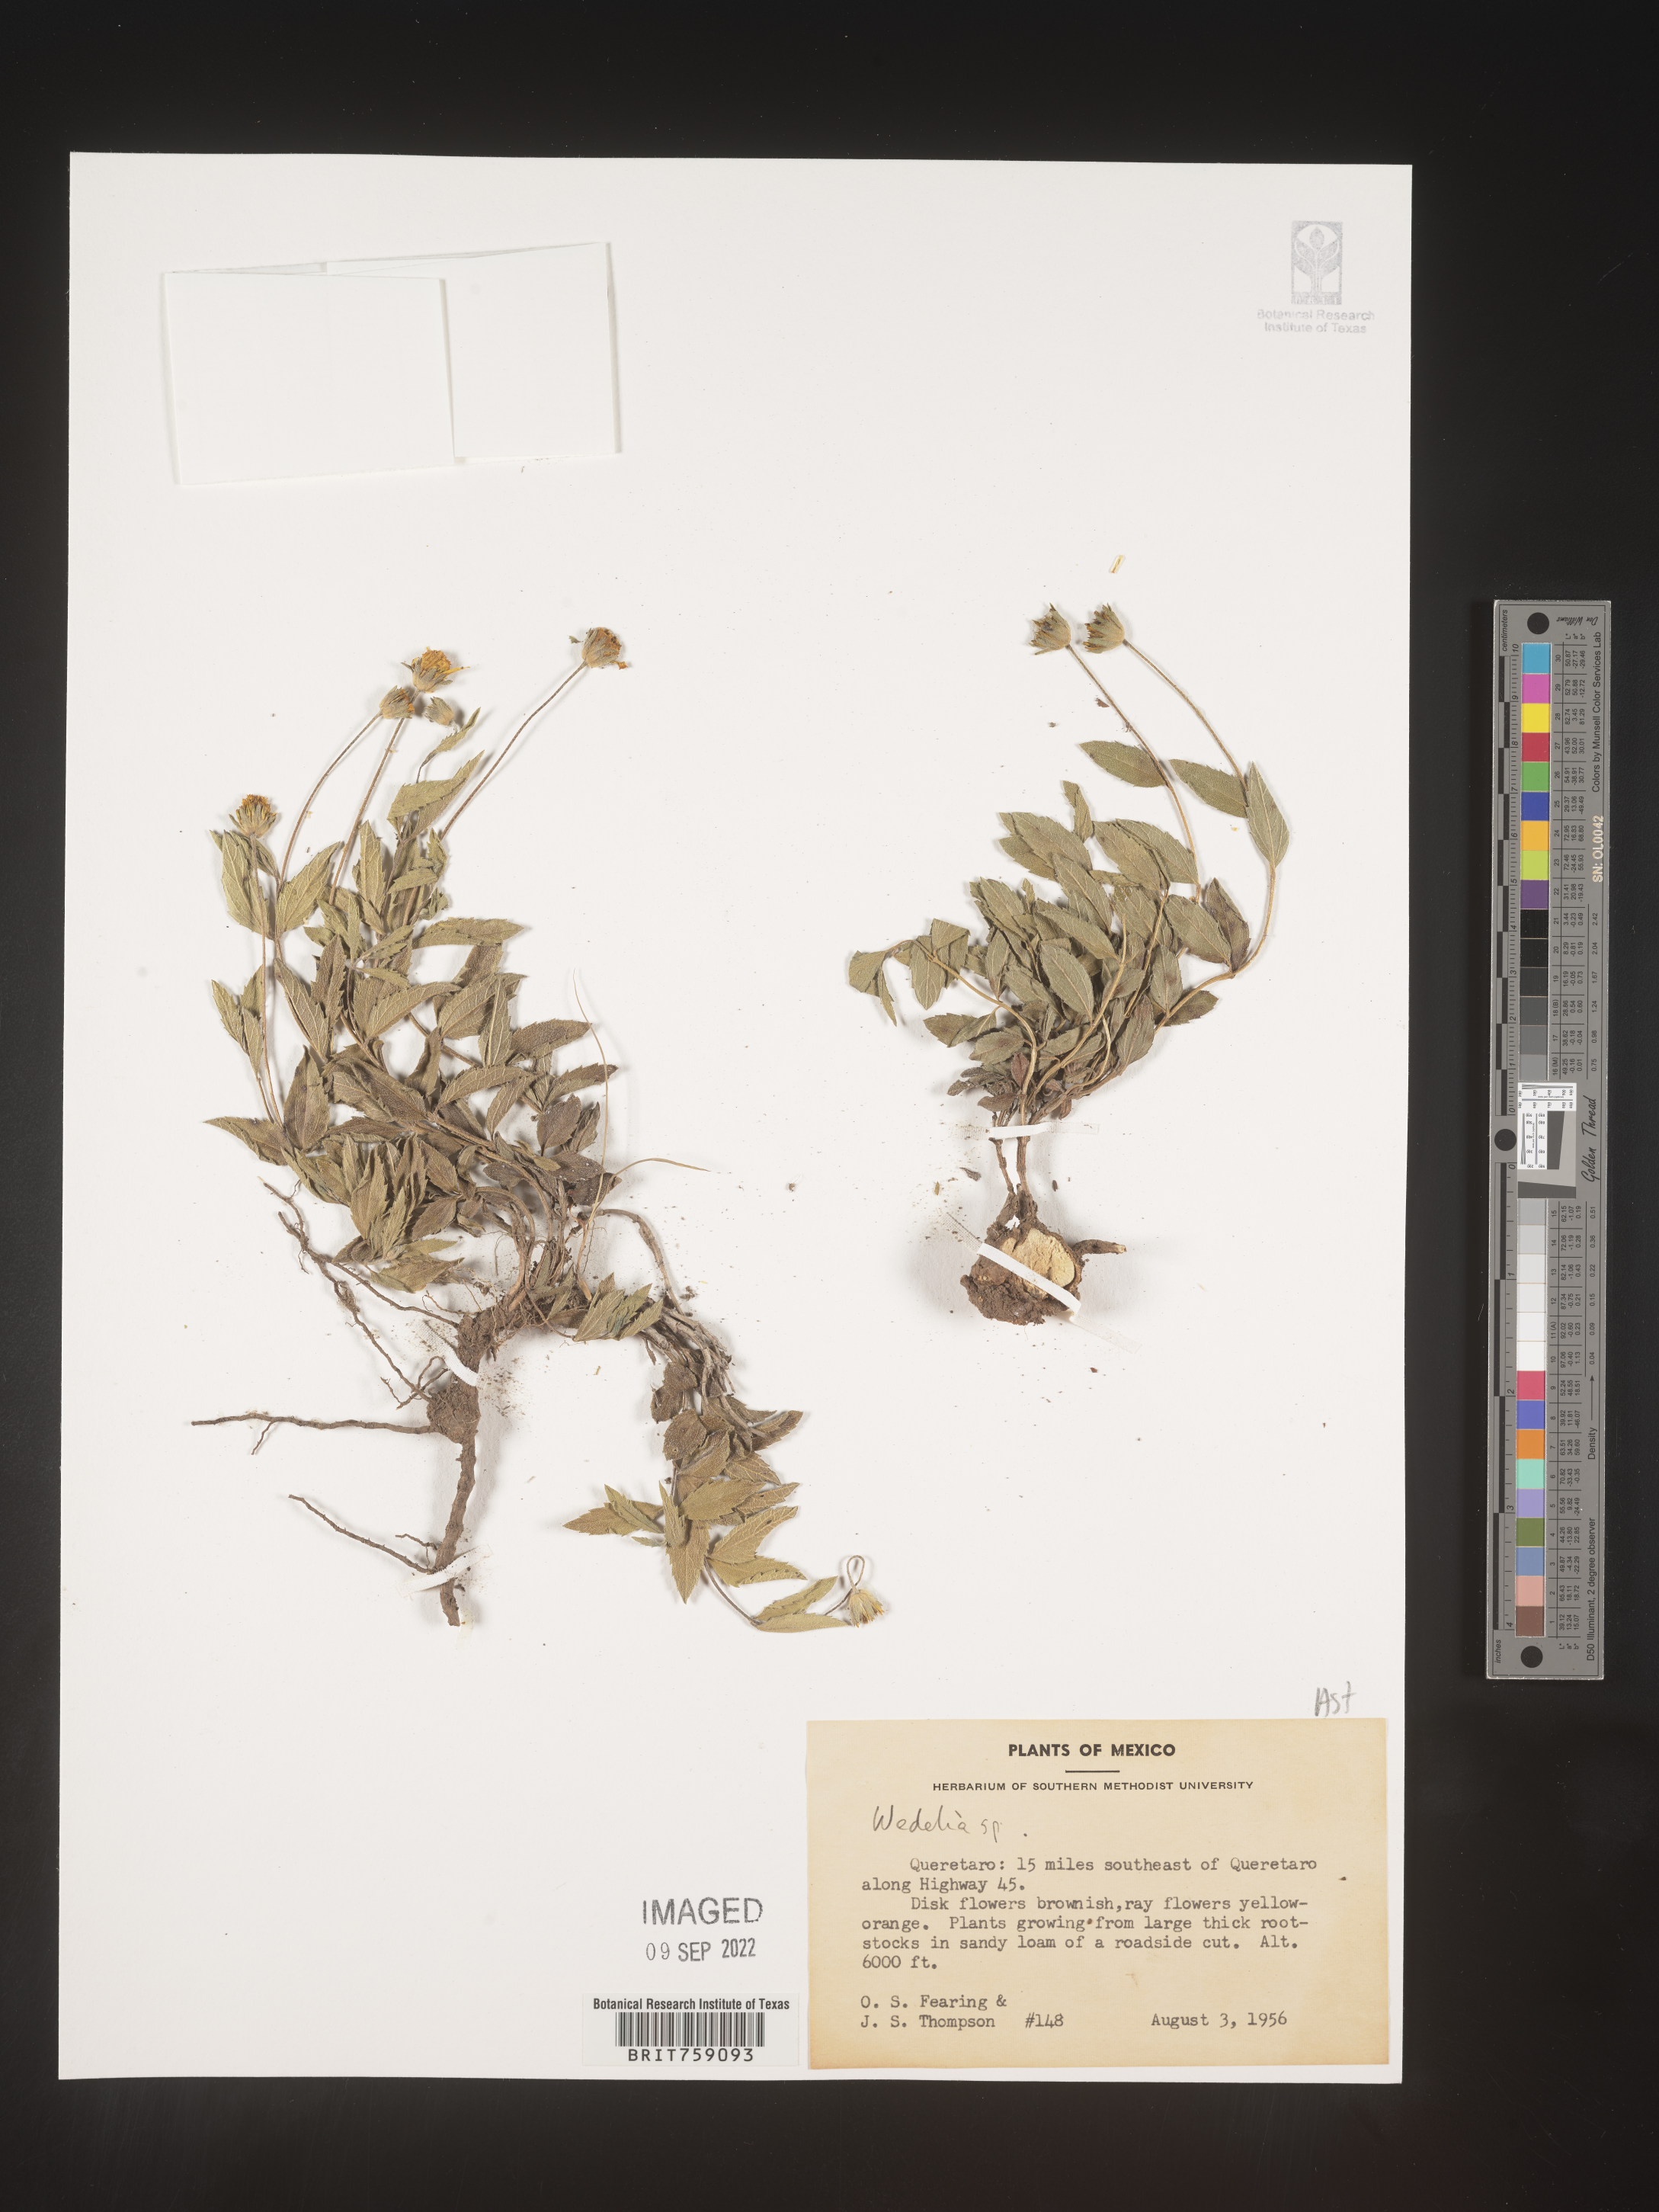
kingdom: Plantae
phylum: Tracheophyta
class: Magnoliopsida
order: Asterales
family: Asteraceae
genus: Wedelia
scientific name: Wedelia
